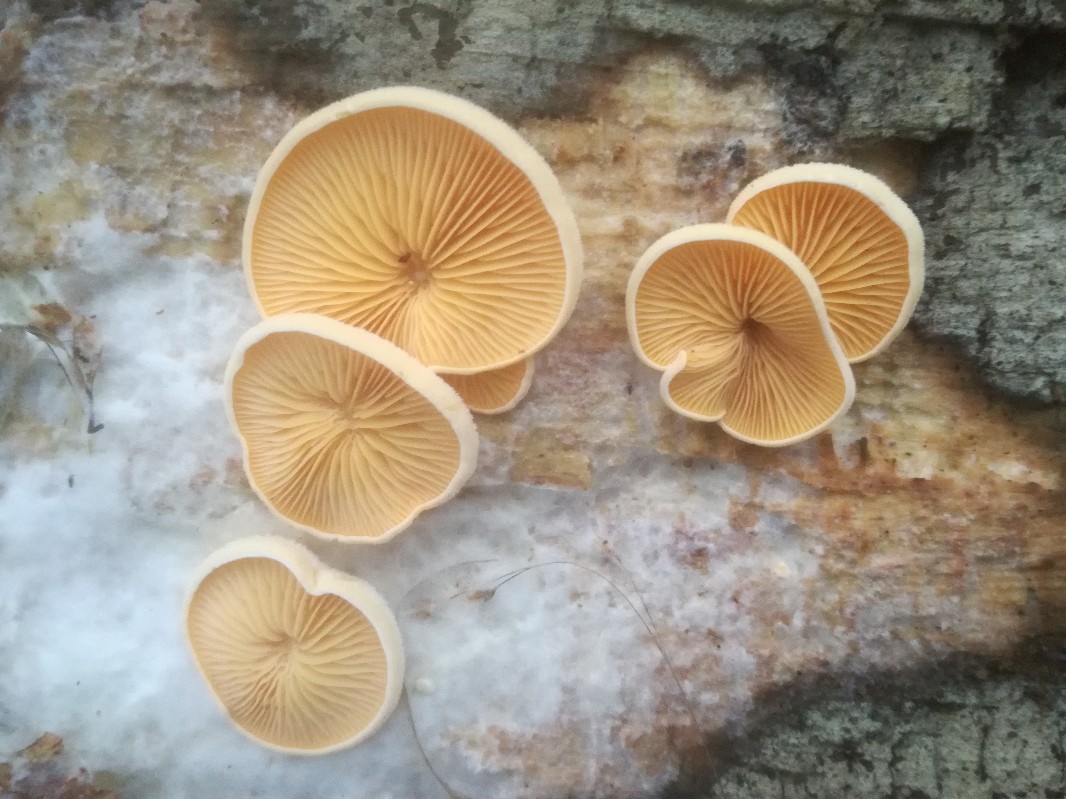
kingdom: Fungi
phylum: Basidiomycota
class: Agaricomycetes
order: Agaricales
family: Phyllotopsidaceae
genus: Phyllotopsis
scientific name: Phyllotopsis nidulans
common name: okkerblad
